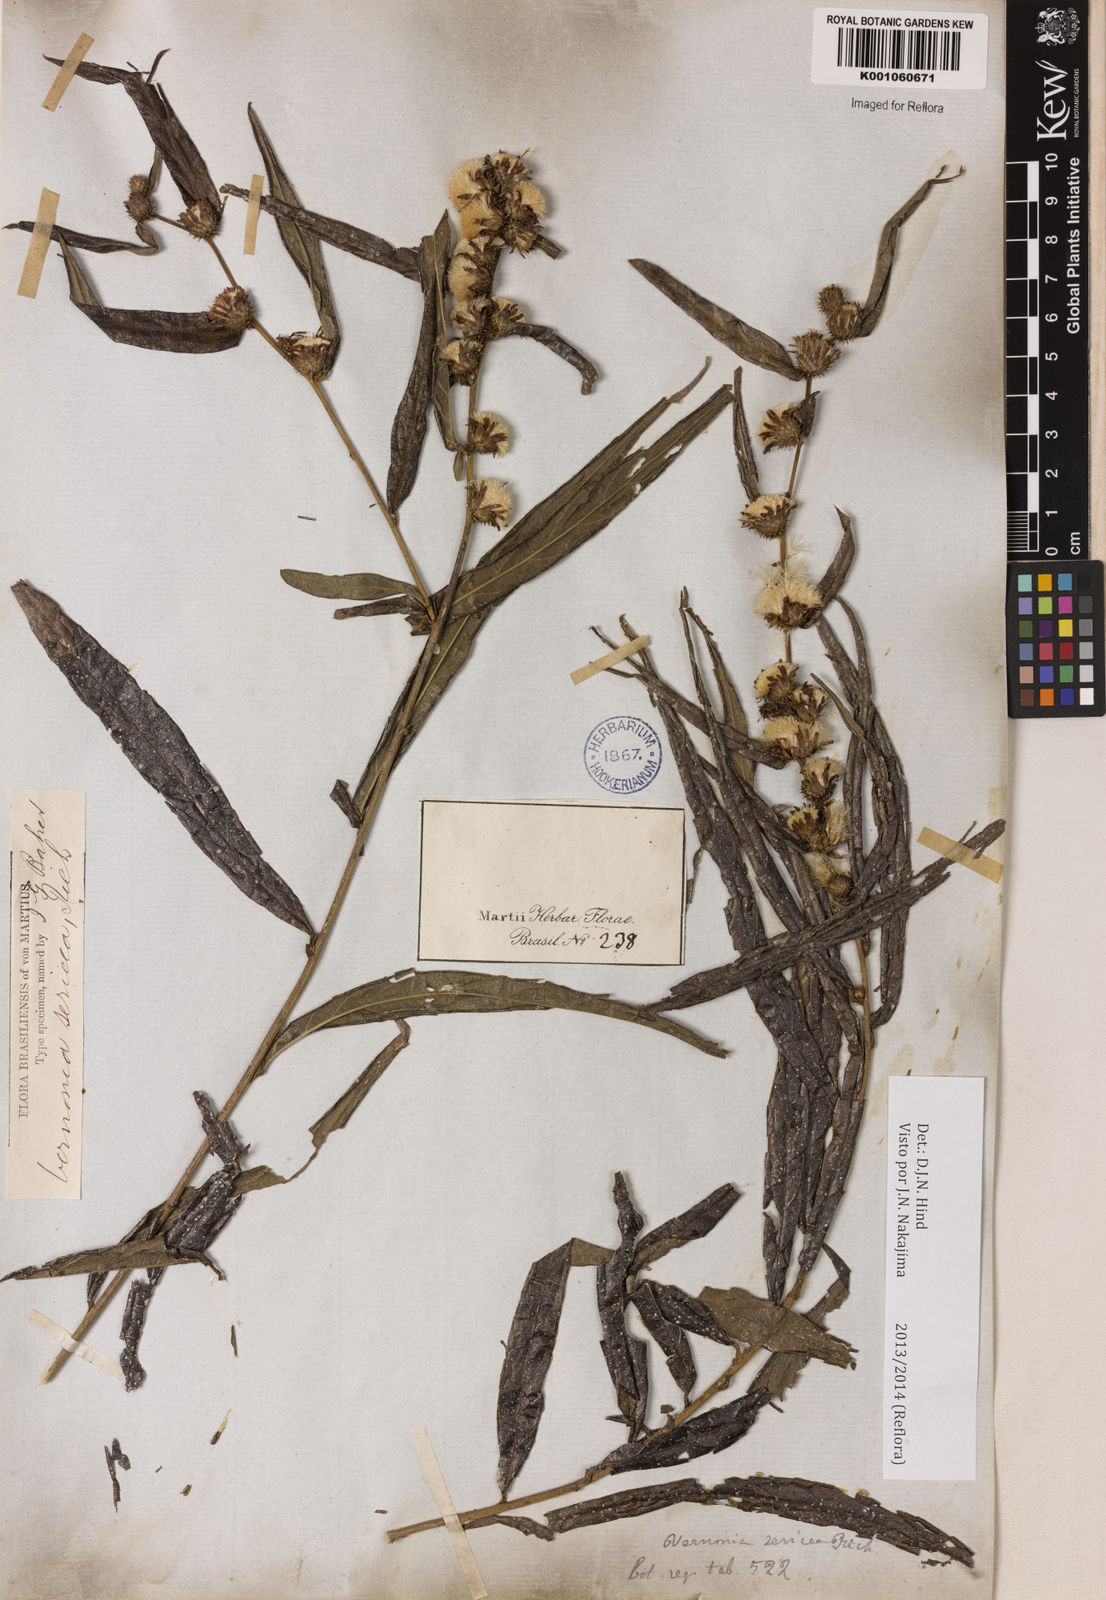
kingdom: Plantae
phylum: Tracheophyta
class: Magnoliopsida
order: Asterales
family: Asteraceae
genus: Lepidaploa
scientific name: Lepidaploa sericea
